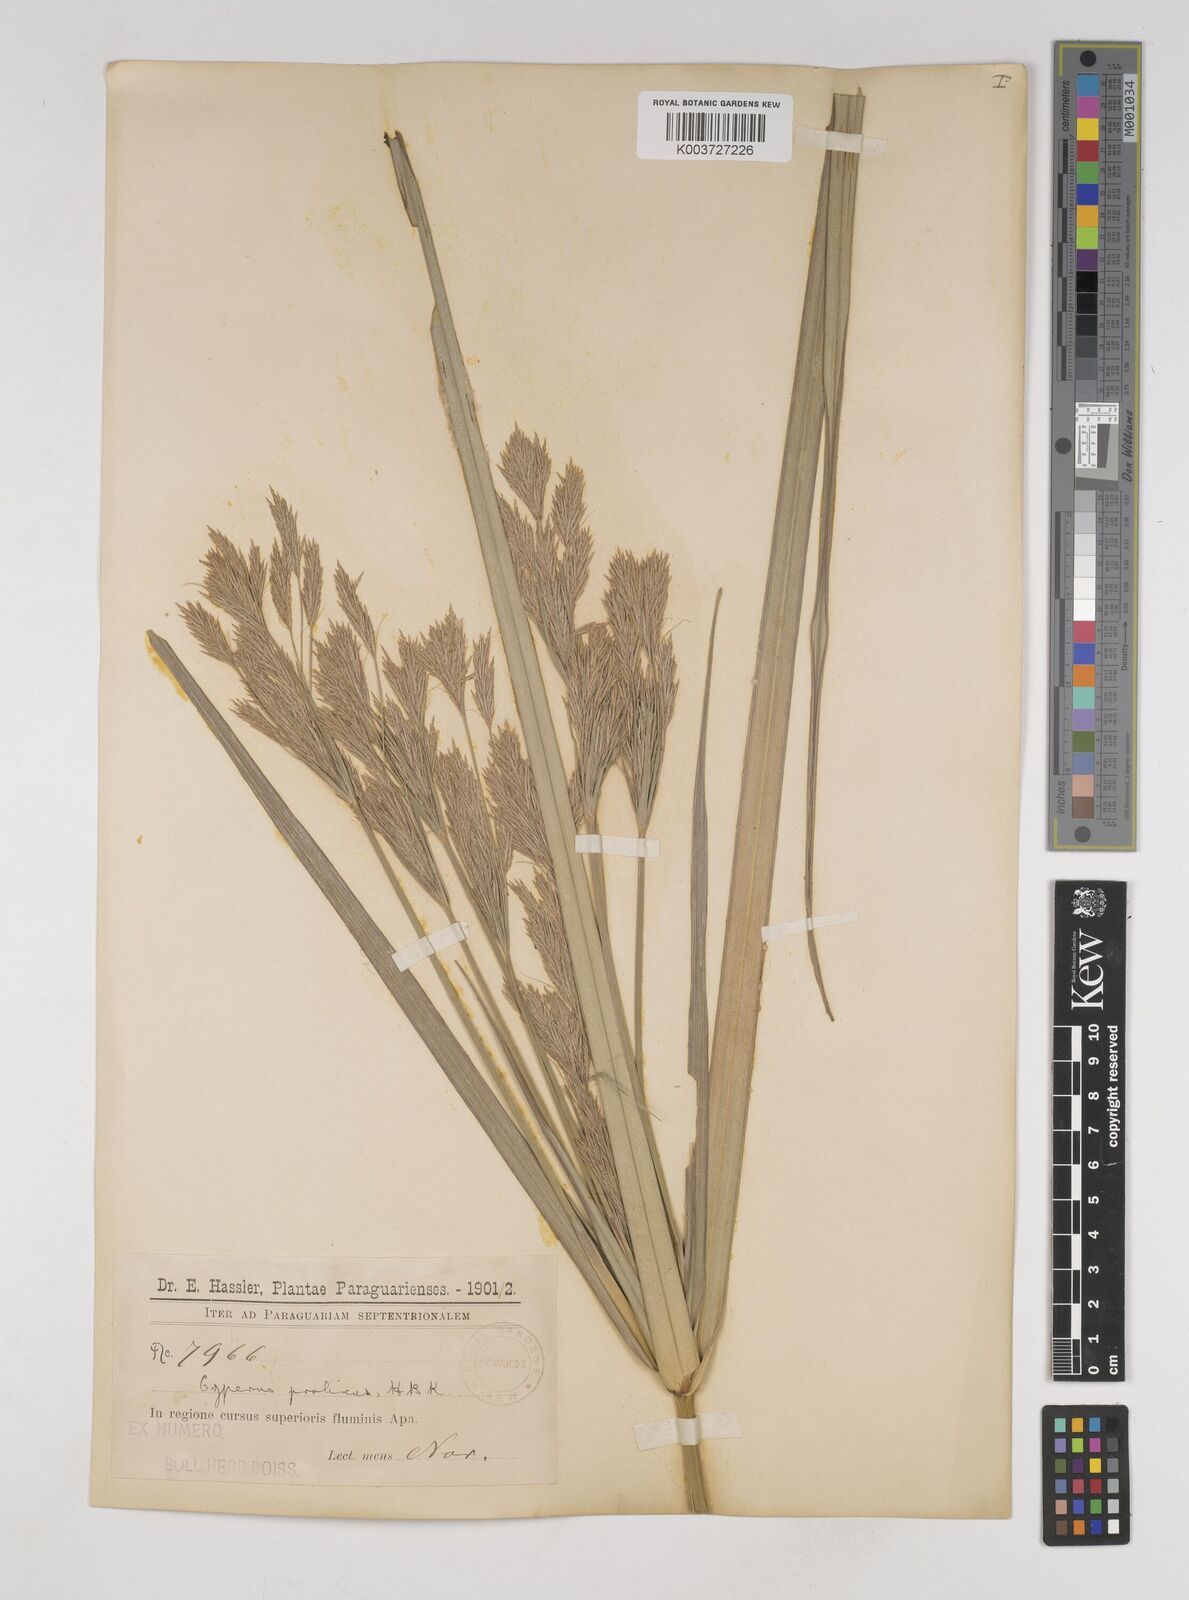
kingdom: Plantae
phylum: Tracheophyta
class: Liliopsida
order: Poales
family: Cyperaceae
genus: Cyperus
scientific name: Cyperus prolixus
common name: Mosquito flatsedge
